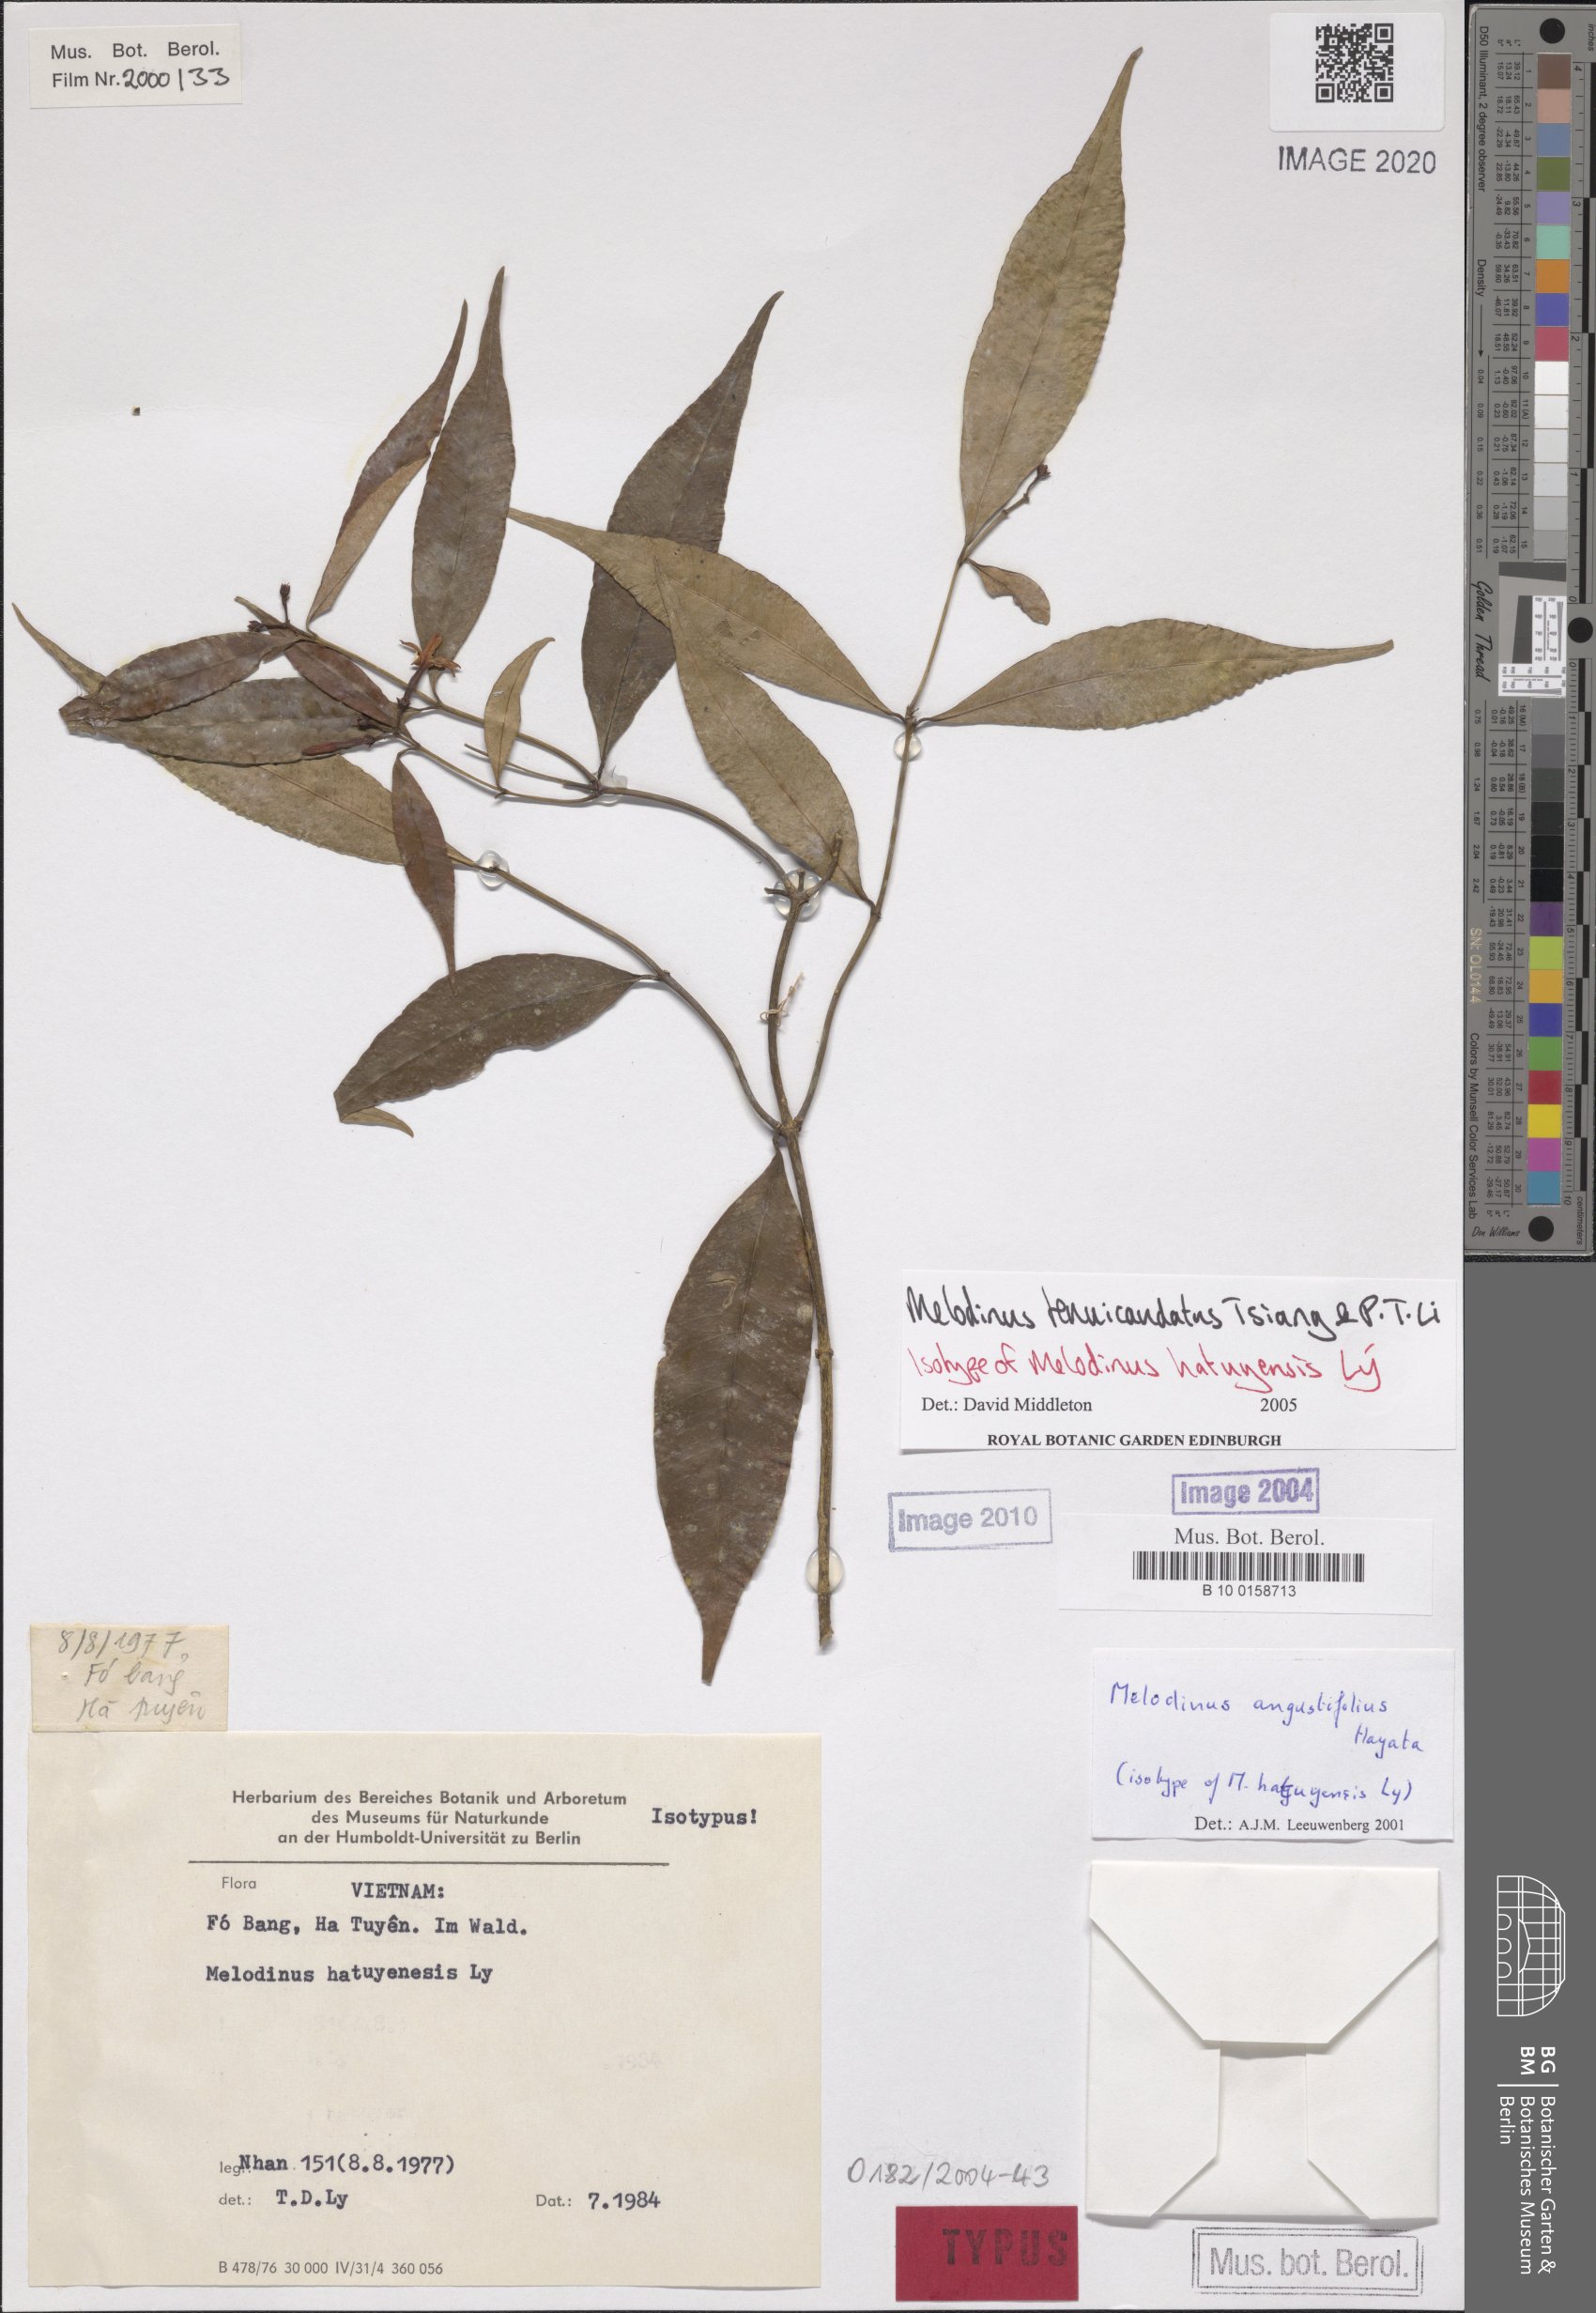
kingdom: Plantae
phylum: Tracheophyta
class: Magnoliopsida
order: Gentianales
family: Apocynaceae
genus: Melodinus
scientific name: Melodinus tenuicaudatus
